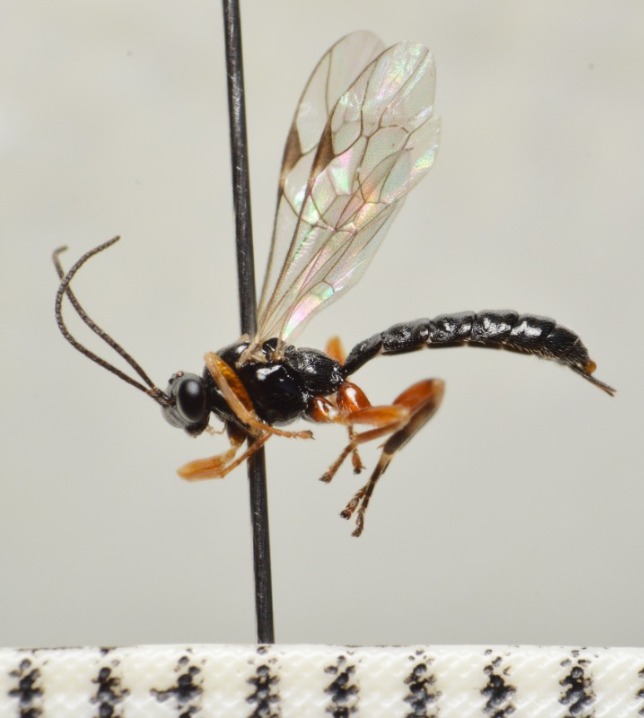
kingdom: Animalia
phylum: Arthropoda
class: Insecta
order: Hymenoptera
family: Ichneumonidae
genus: Oxyrrhexis
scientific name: Oxyrrhexis carbonator
